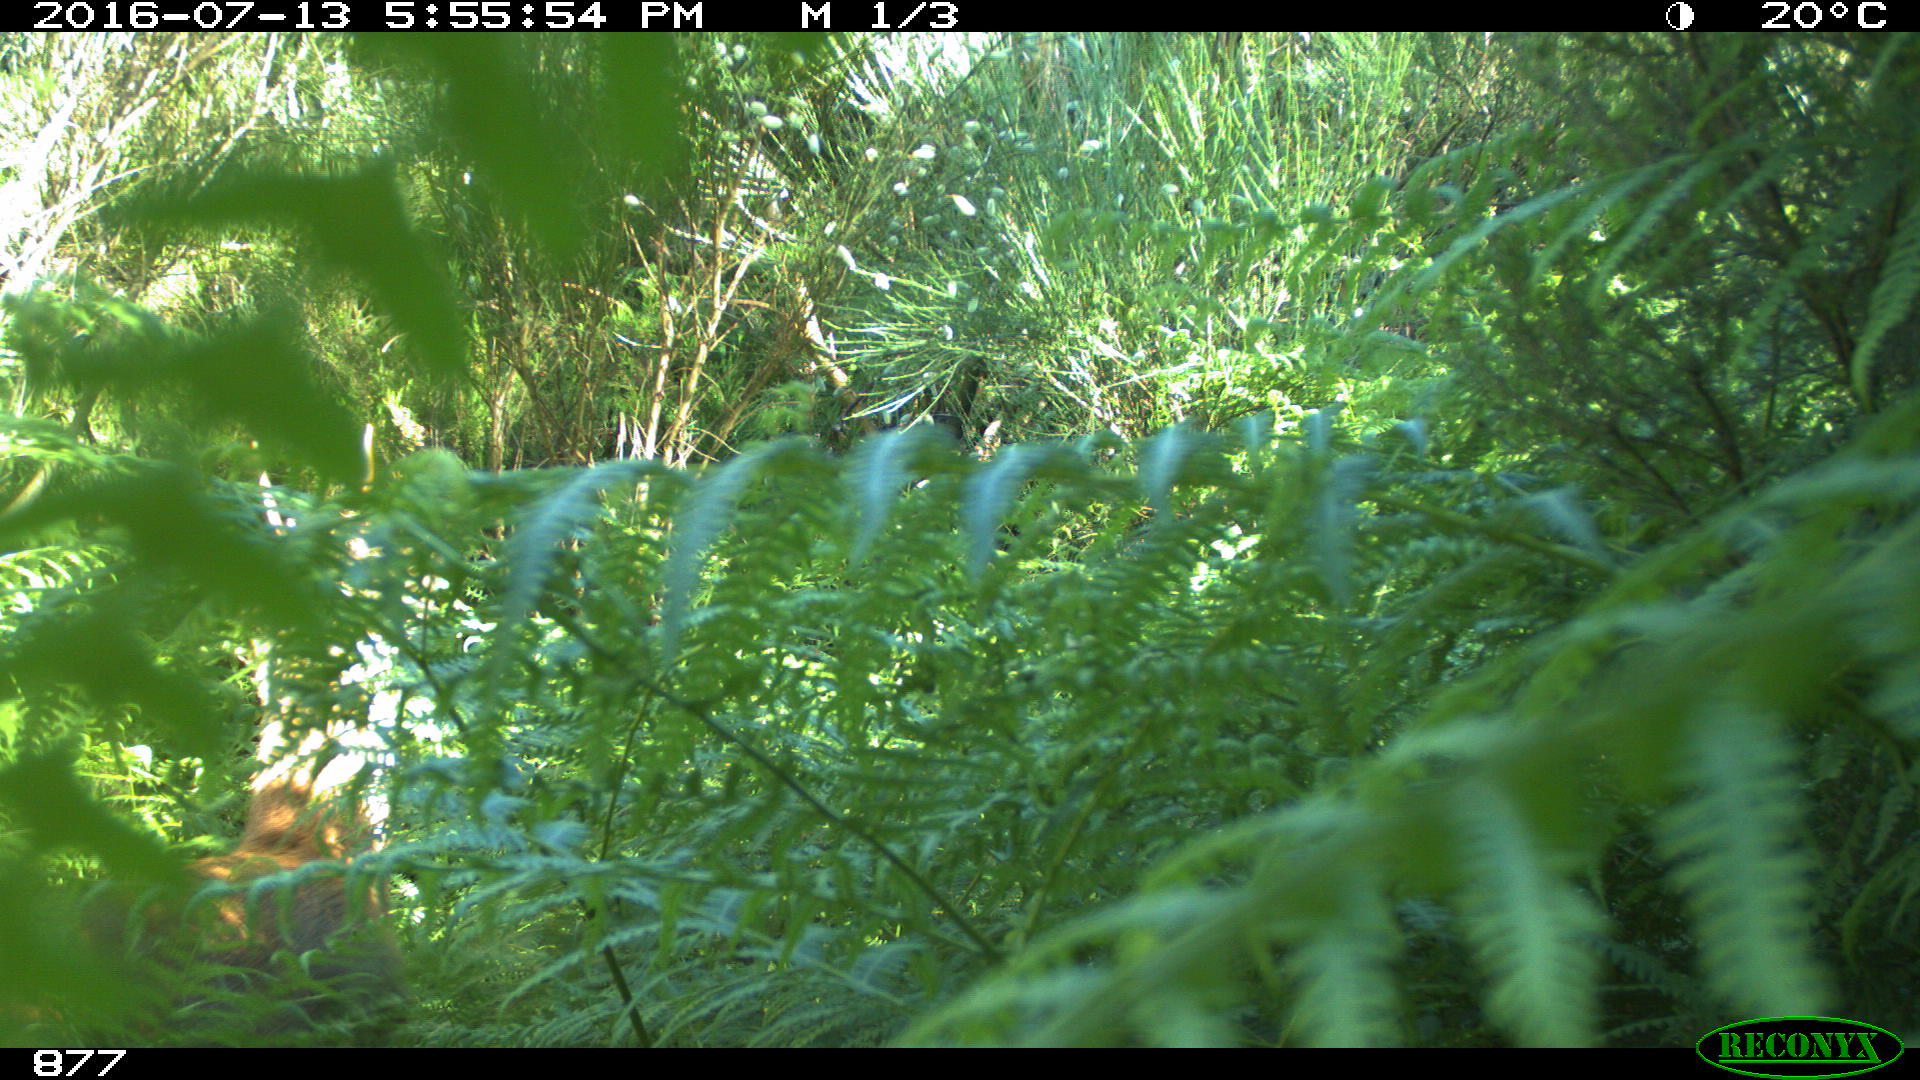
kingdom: Animalia
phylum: Chordata
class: Mammalia
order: Artiodactyla
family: Cervidae
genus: Capreolus
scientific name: Capreolus capreolus
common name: Western roe deer
